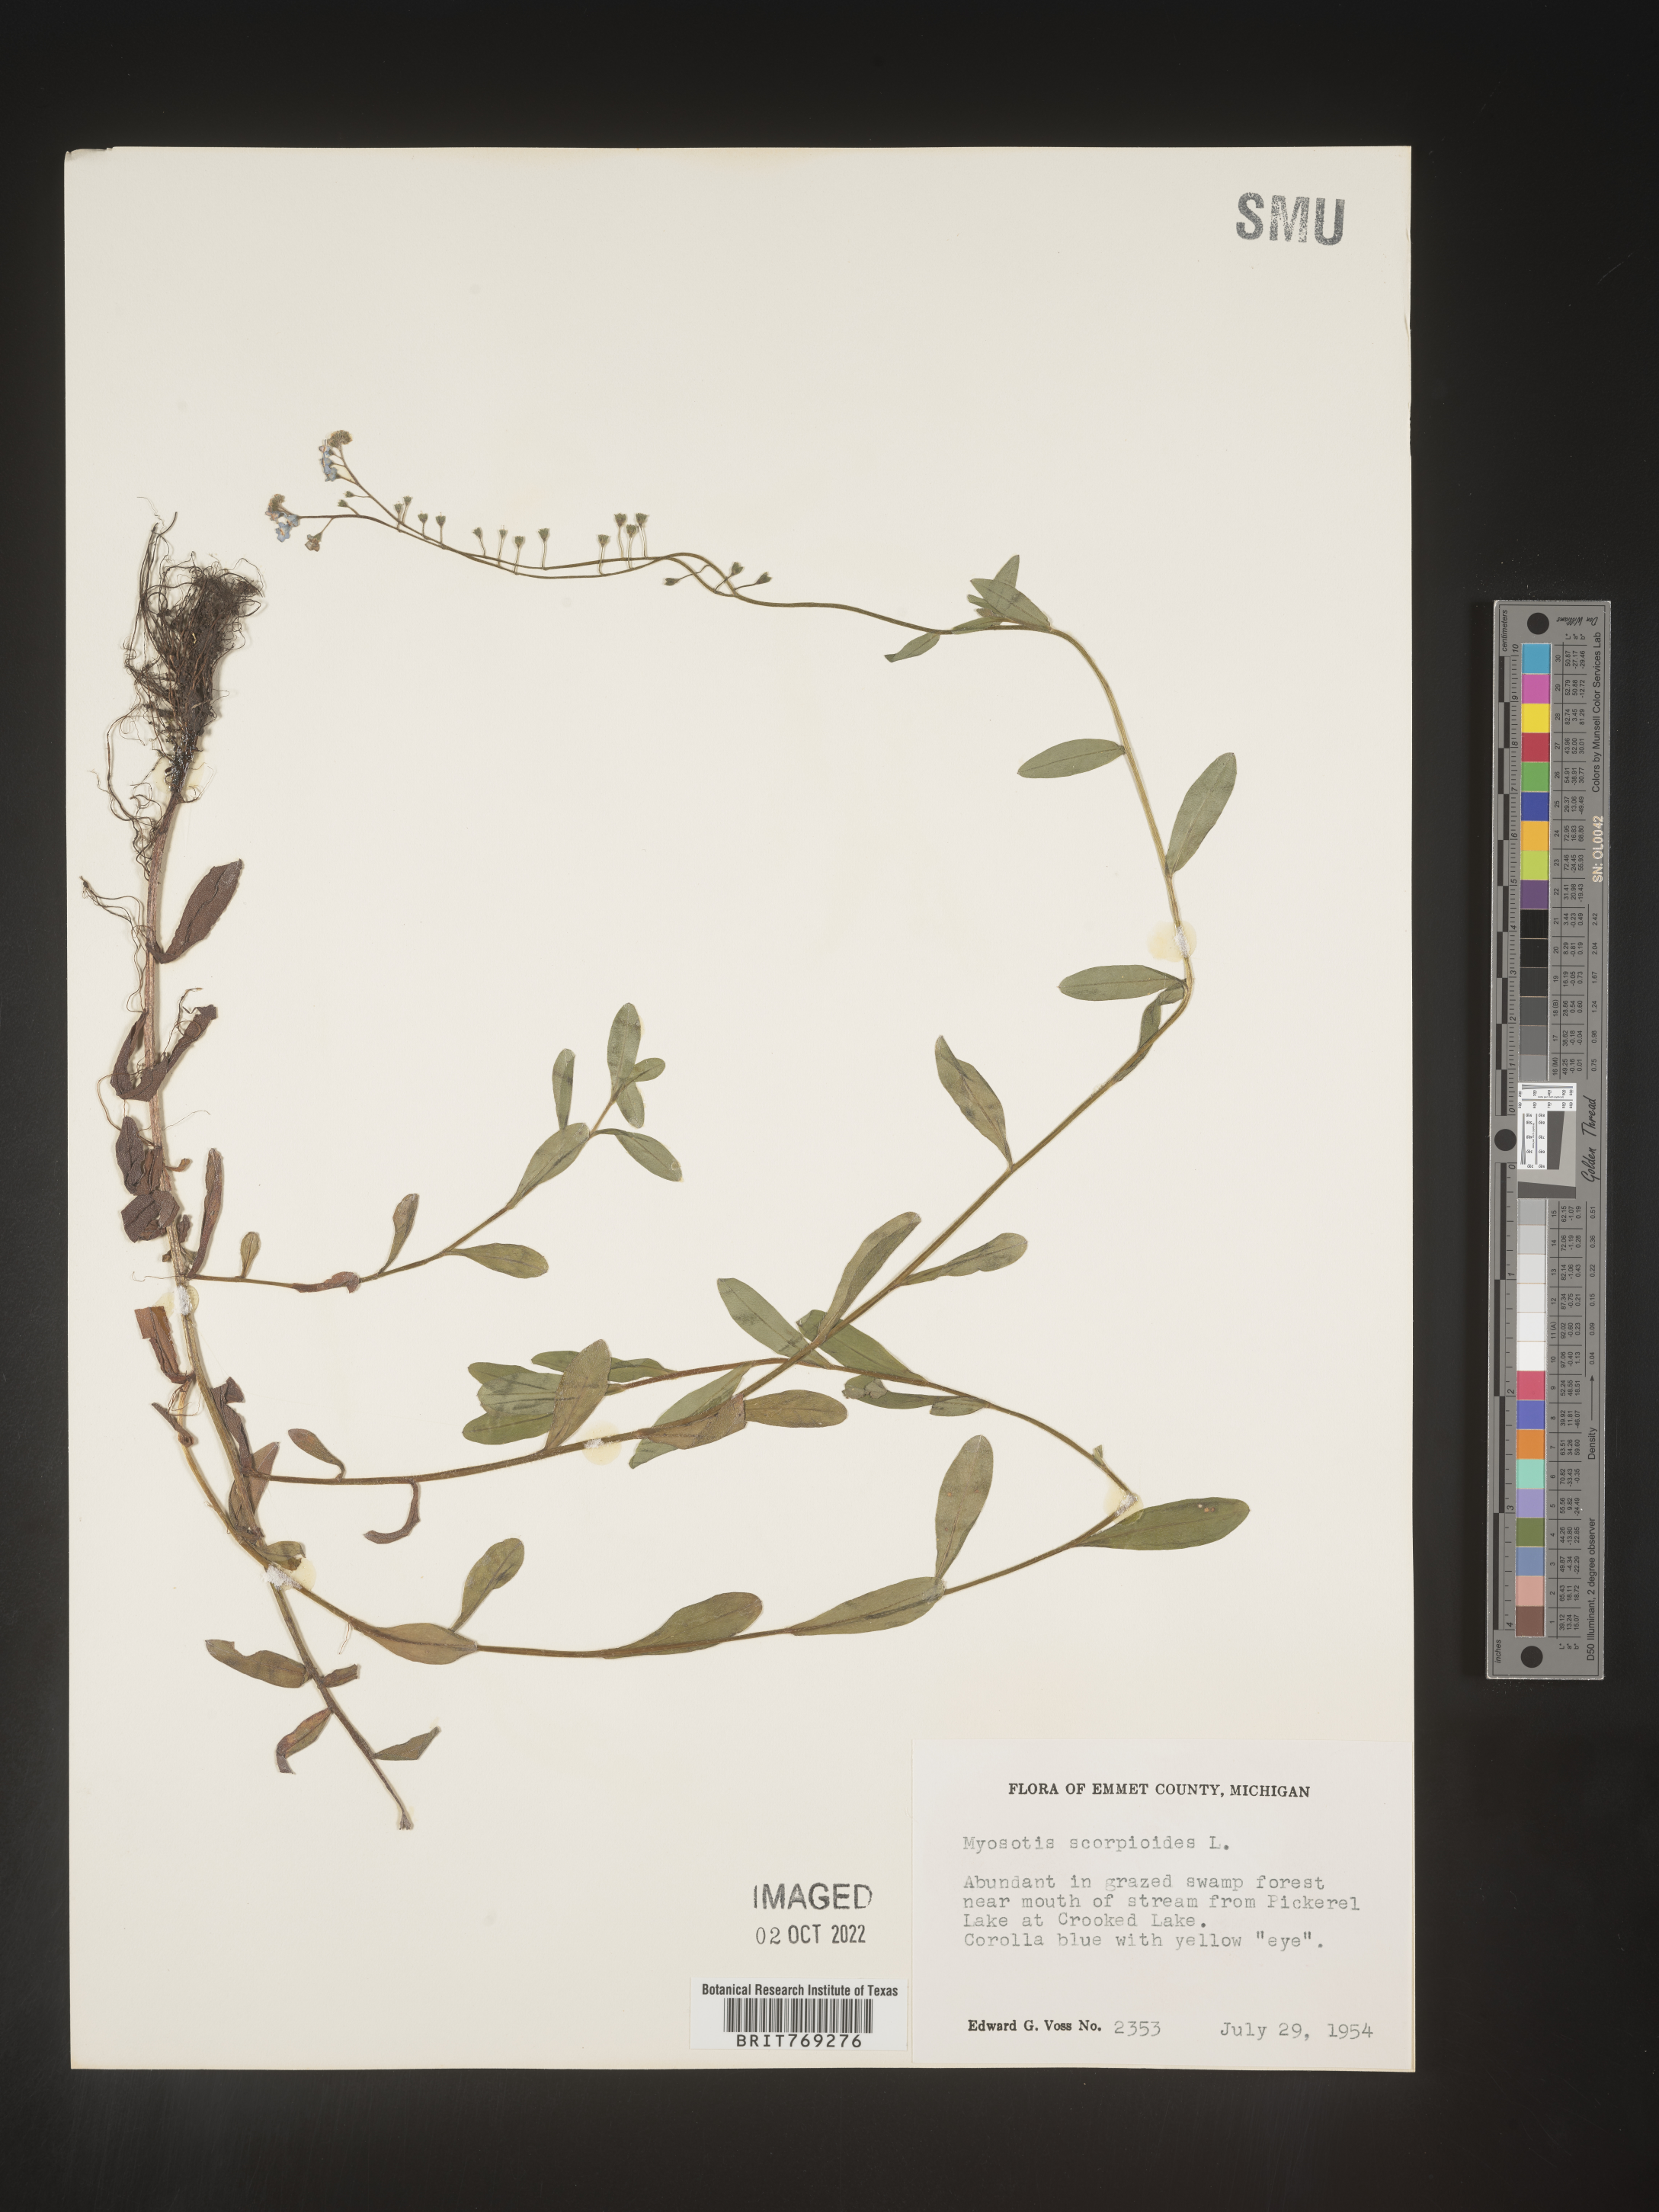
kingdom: Plantae
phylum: Tracheophyta
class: Magnoliopsida
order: Boraginales
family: Boraginaceae
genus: Myosotis
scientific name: Myosotis scorpioides
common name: Water forget-me-not
